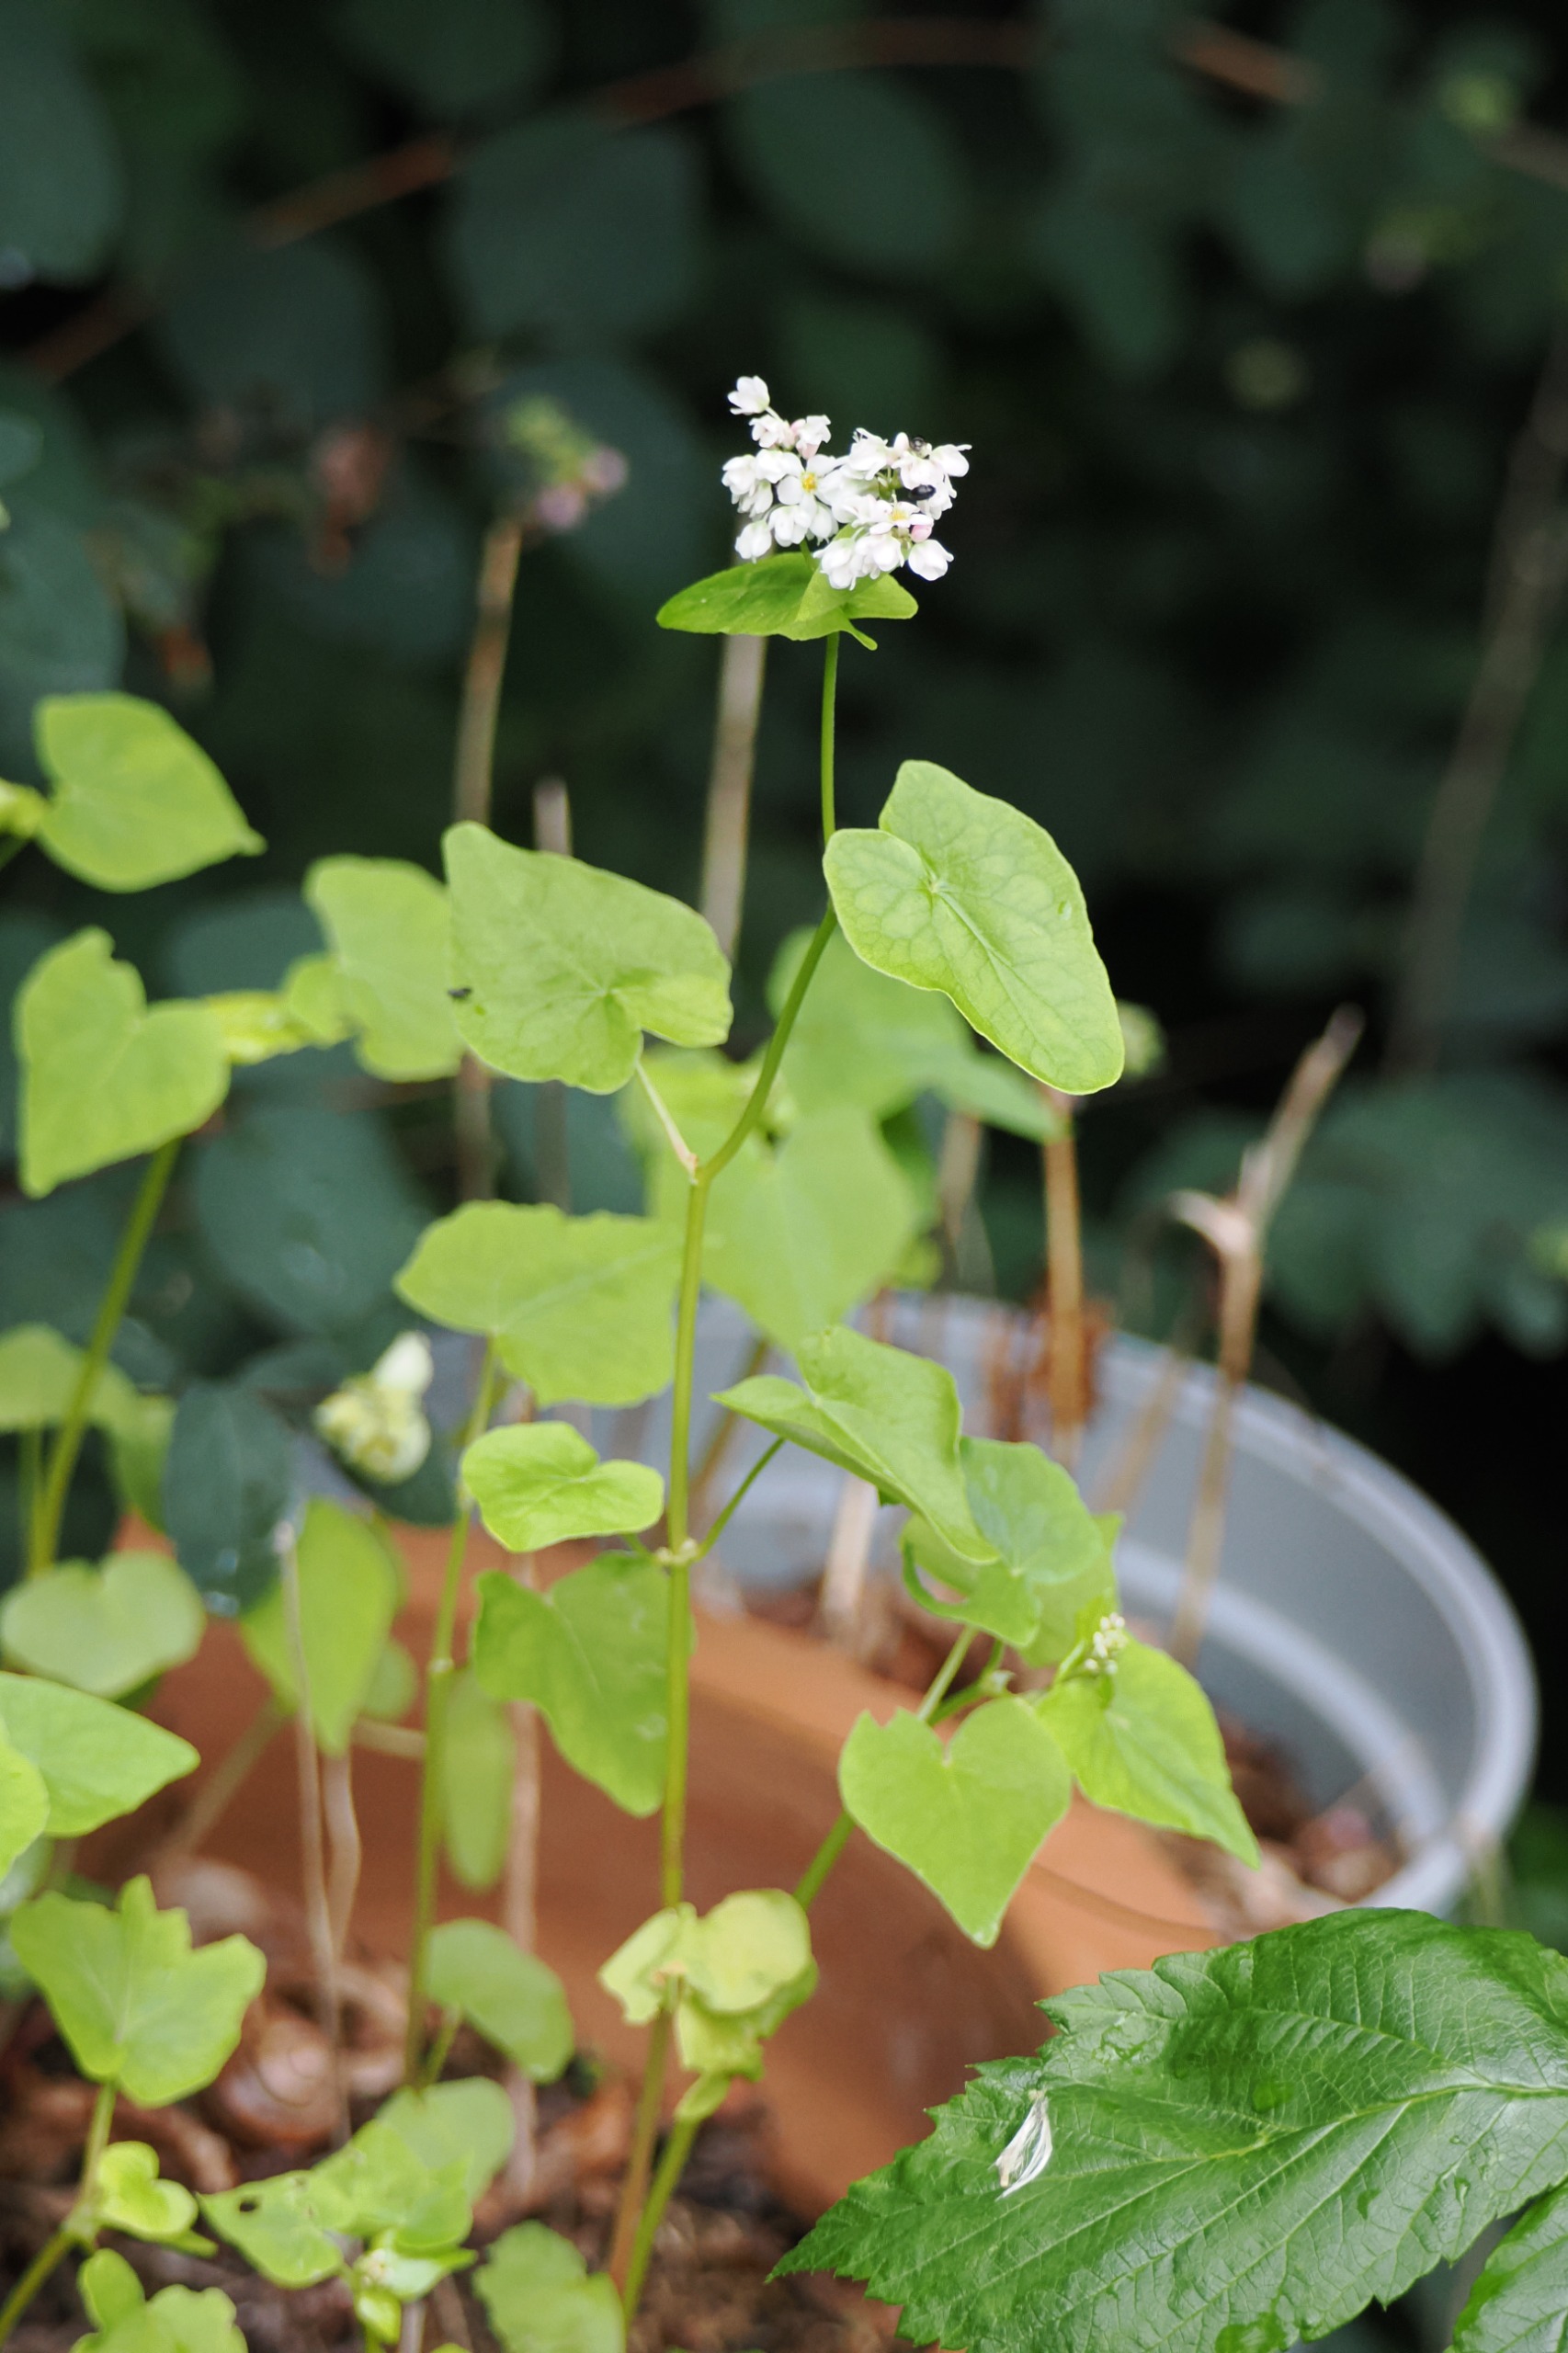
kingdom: Plantae
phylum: Tracheophyta
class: Magnoliopsida
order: Caryophyllales
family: Polygonaceae
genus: Fagopyrum
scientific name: Fagopyrum esculentum
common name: Almindelig boghvede
